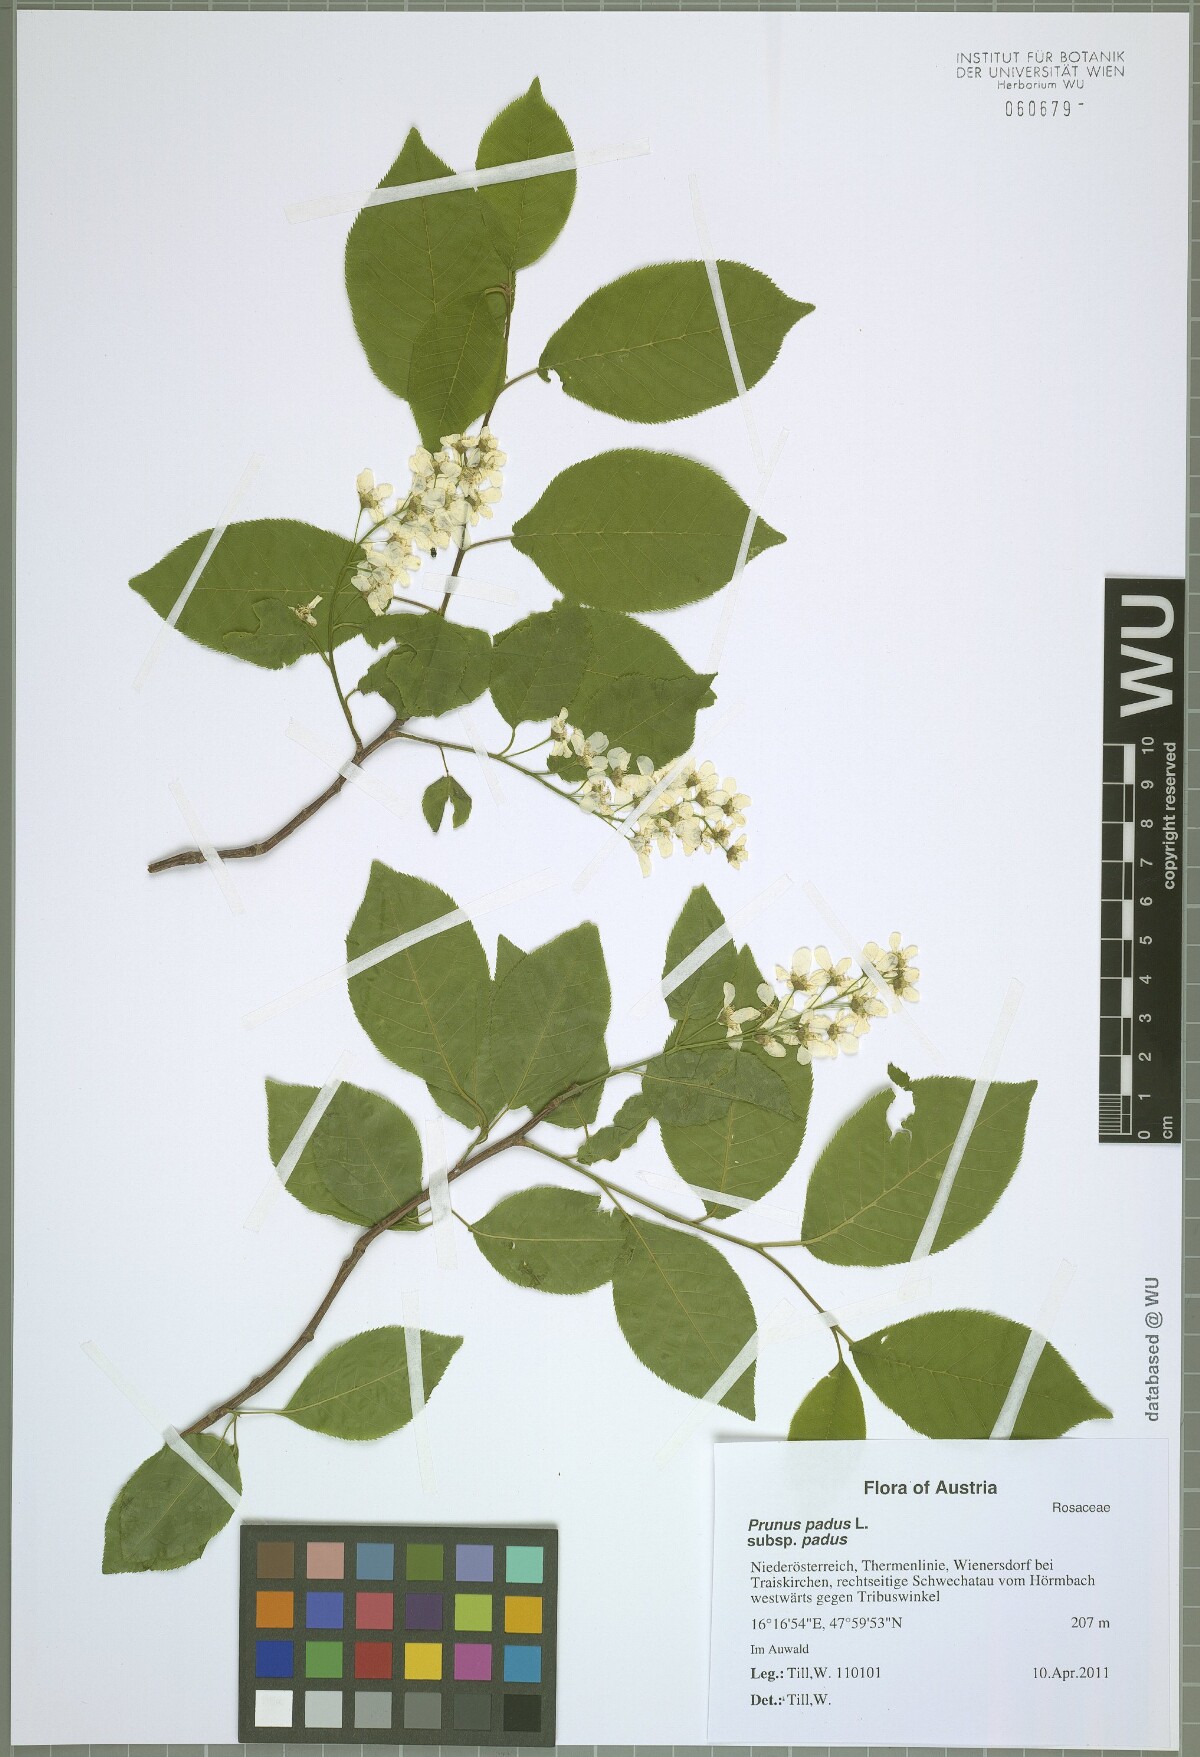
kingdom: Plantae
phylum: Tracheophyta
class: Magnoliopsida
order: Rosales
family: Rosaceae
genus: Prunus
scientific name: Prunus padus
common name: Bird cherry
